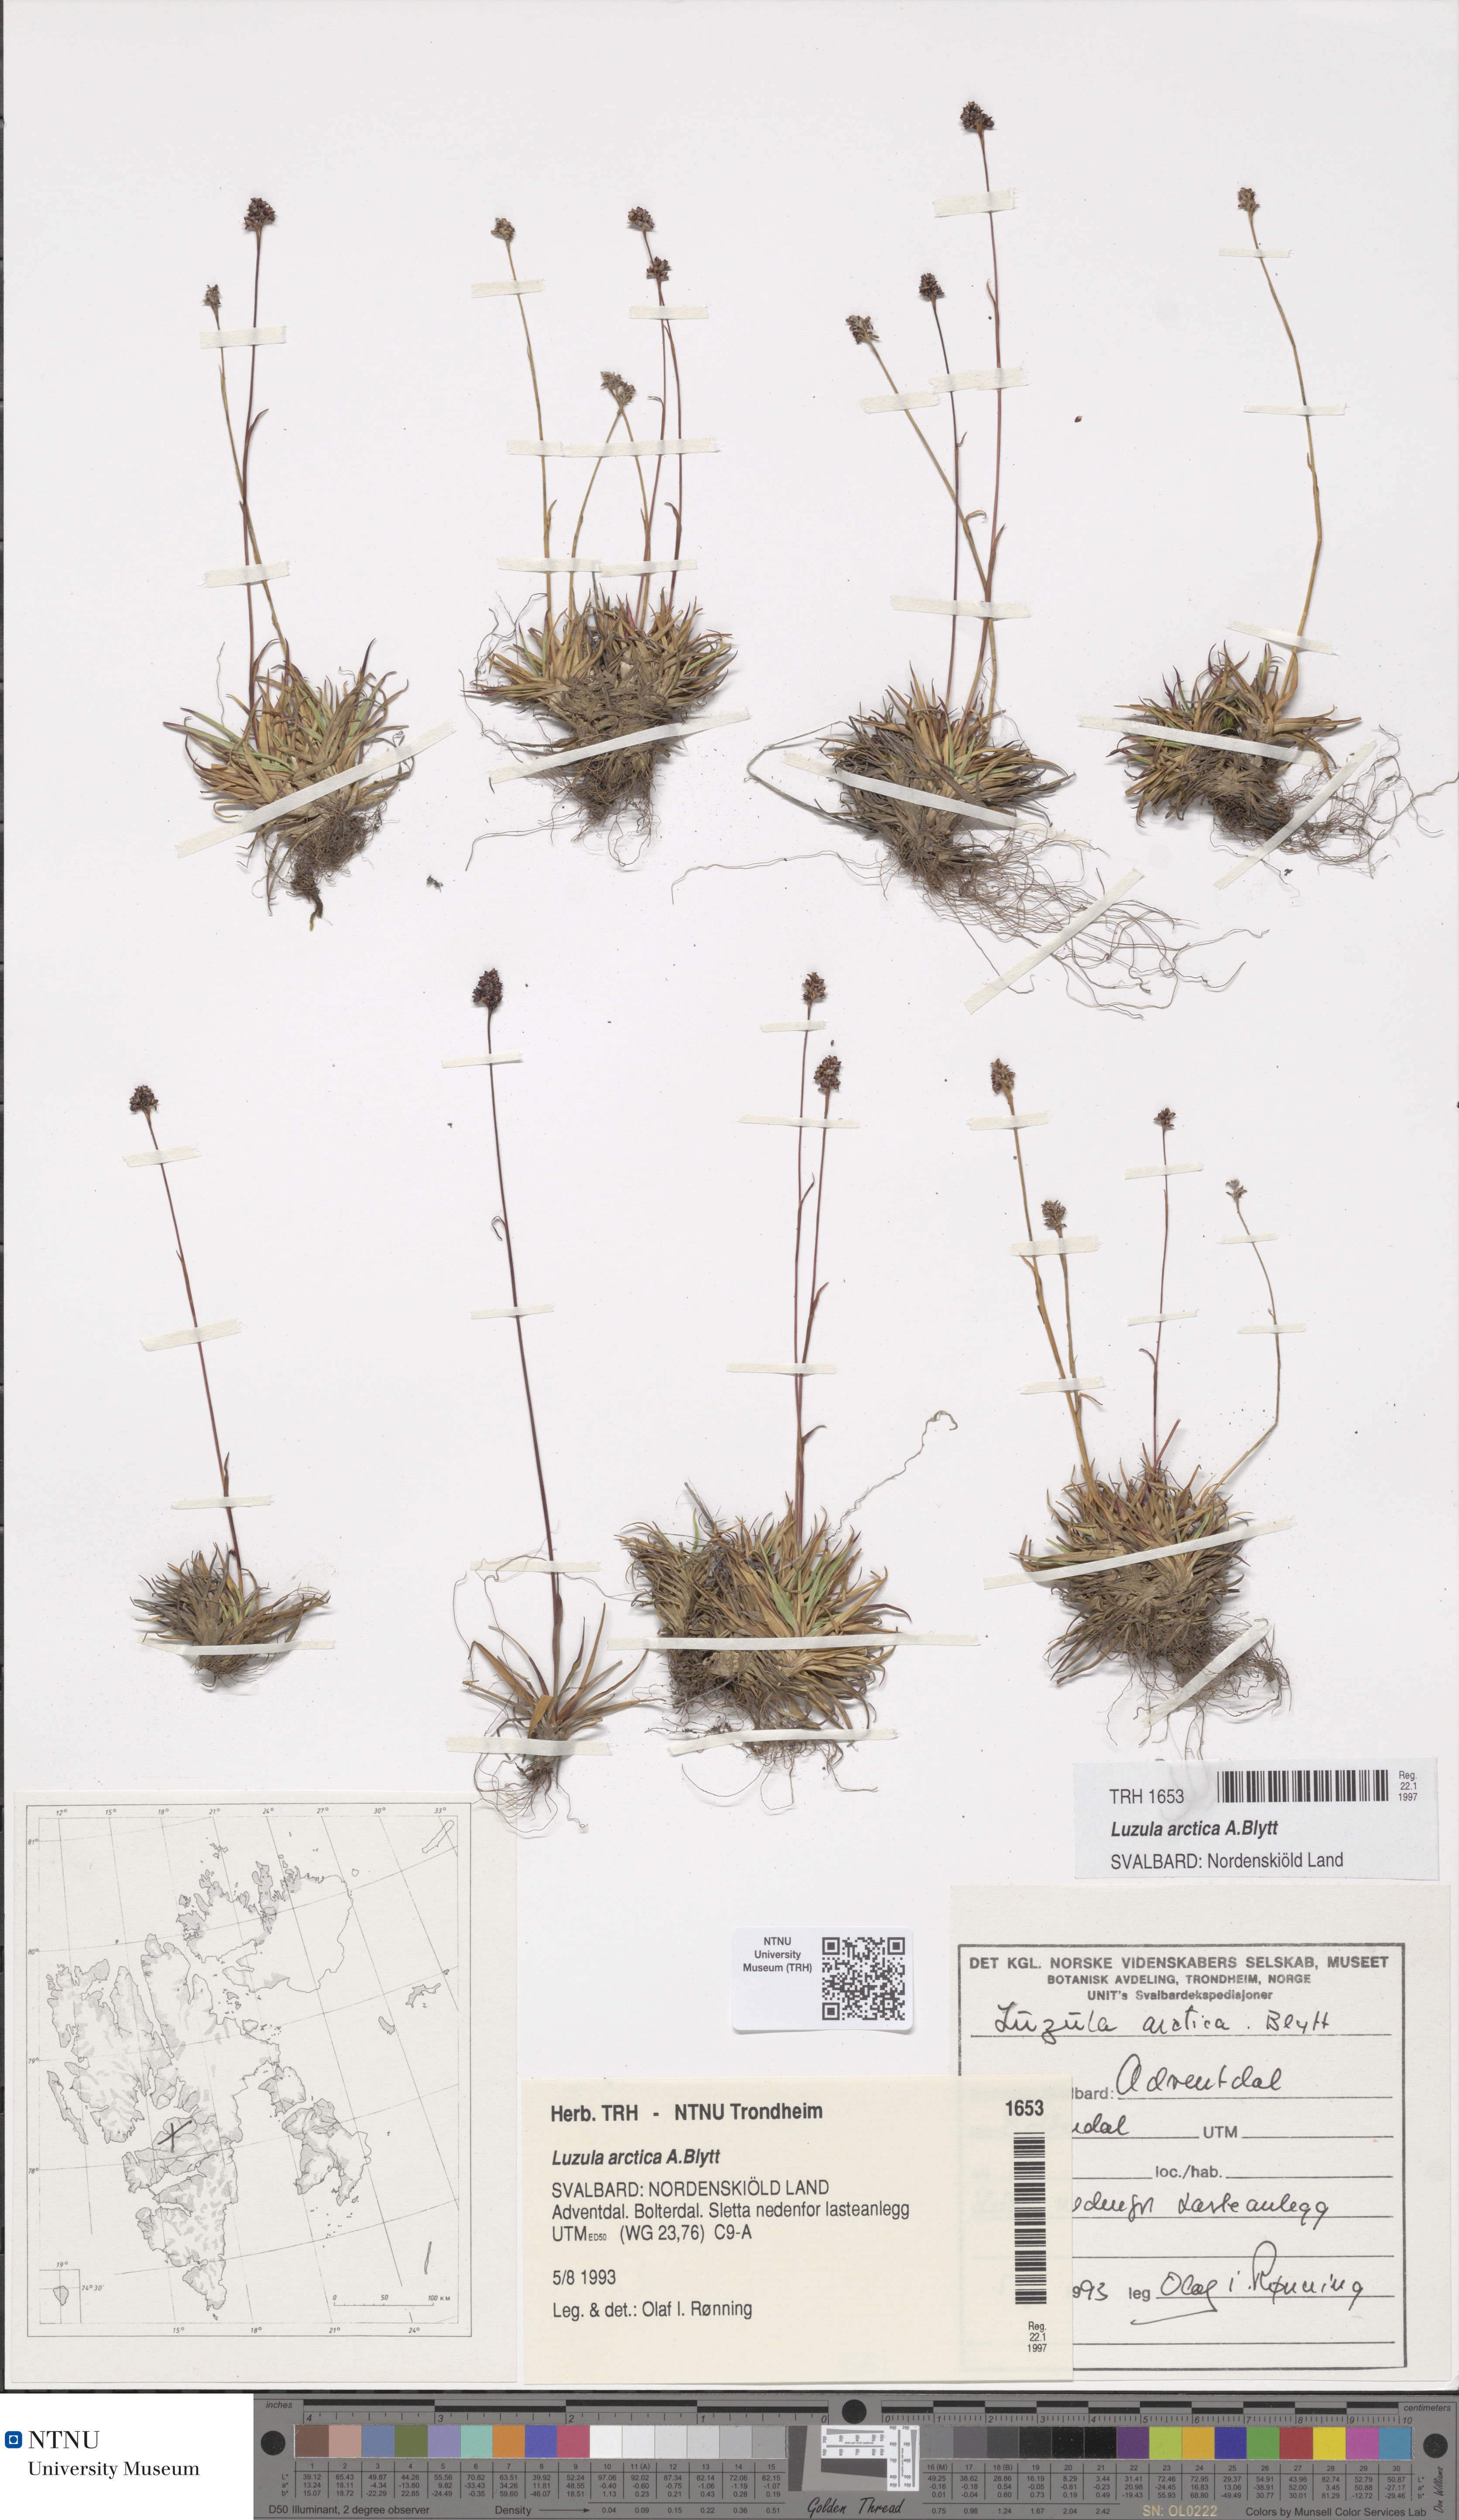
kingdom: Plantae
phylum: Tracheophyta
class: Liliopsida
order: Poales
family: Juncaceae
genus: Luzula
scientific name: Luzula nivalis
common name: Arctic woodrush
